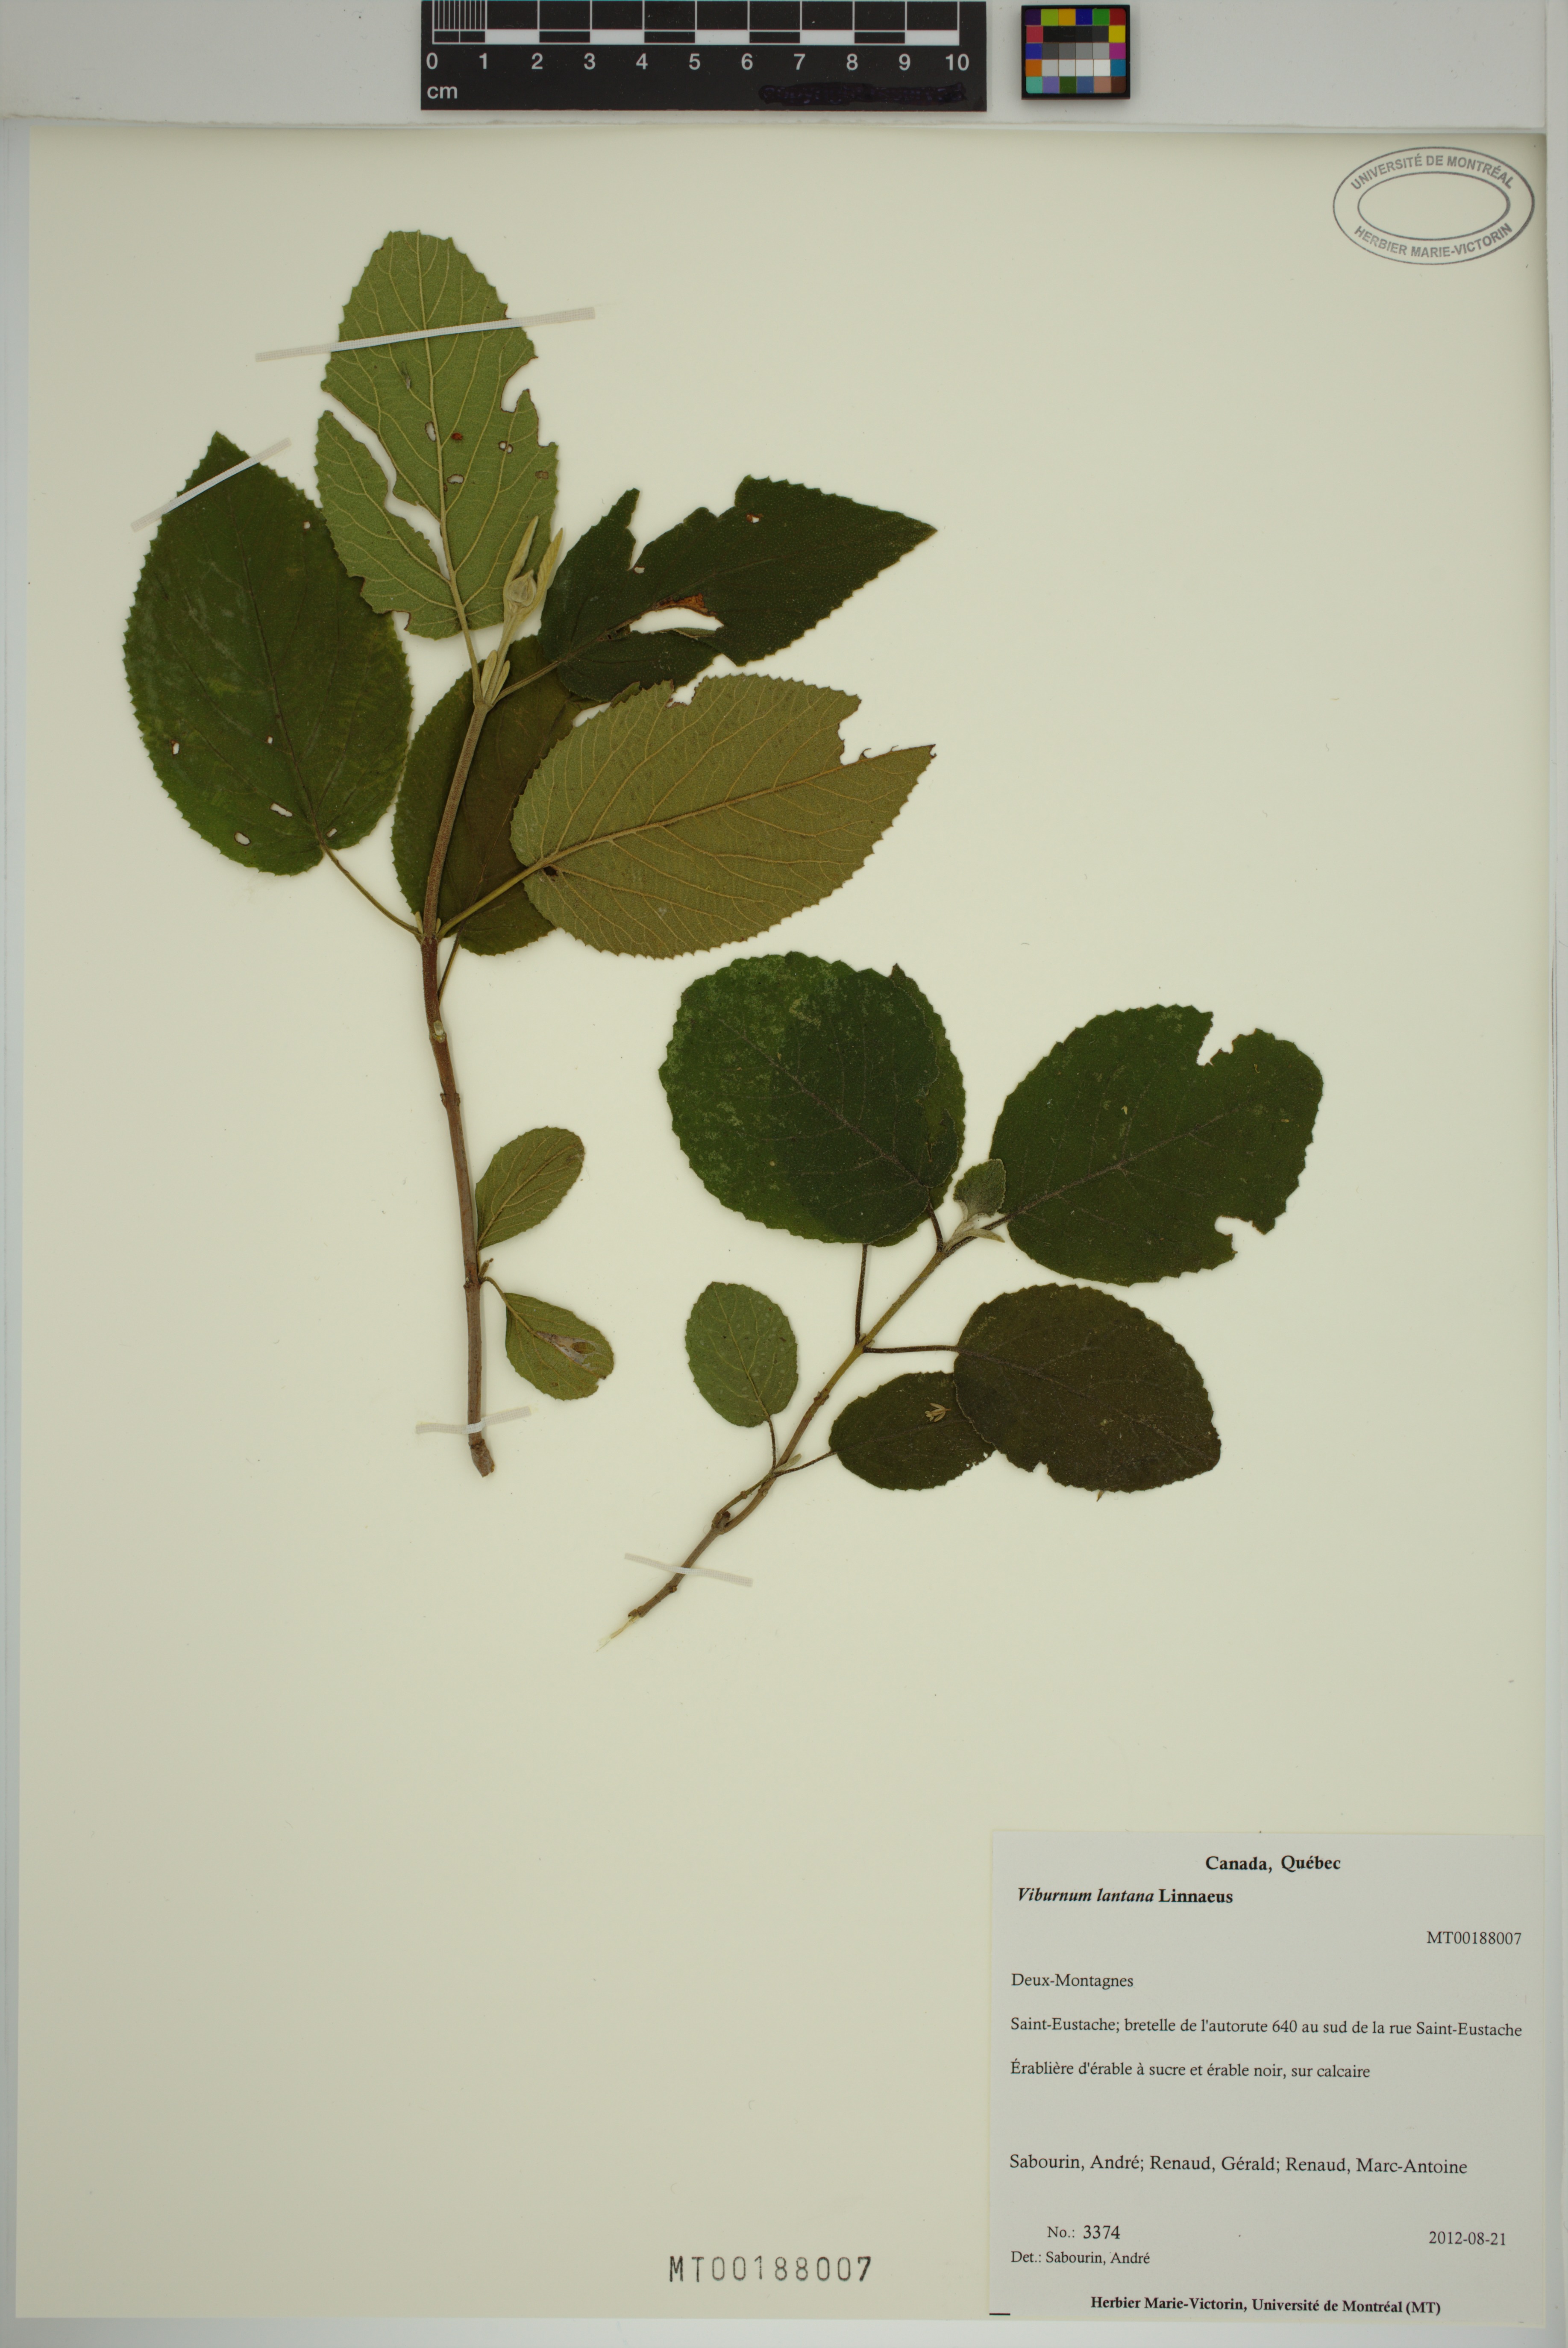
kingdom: Plantae
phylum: Tracheophyta
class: Magnoliopsida
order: Dipsacales
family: Viburnaceae
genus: Viburnum
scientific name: Viburnum lantana
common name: Wayfaring tree
